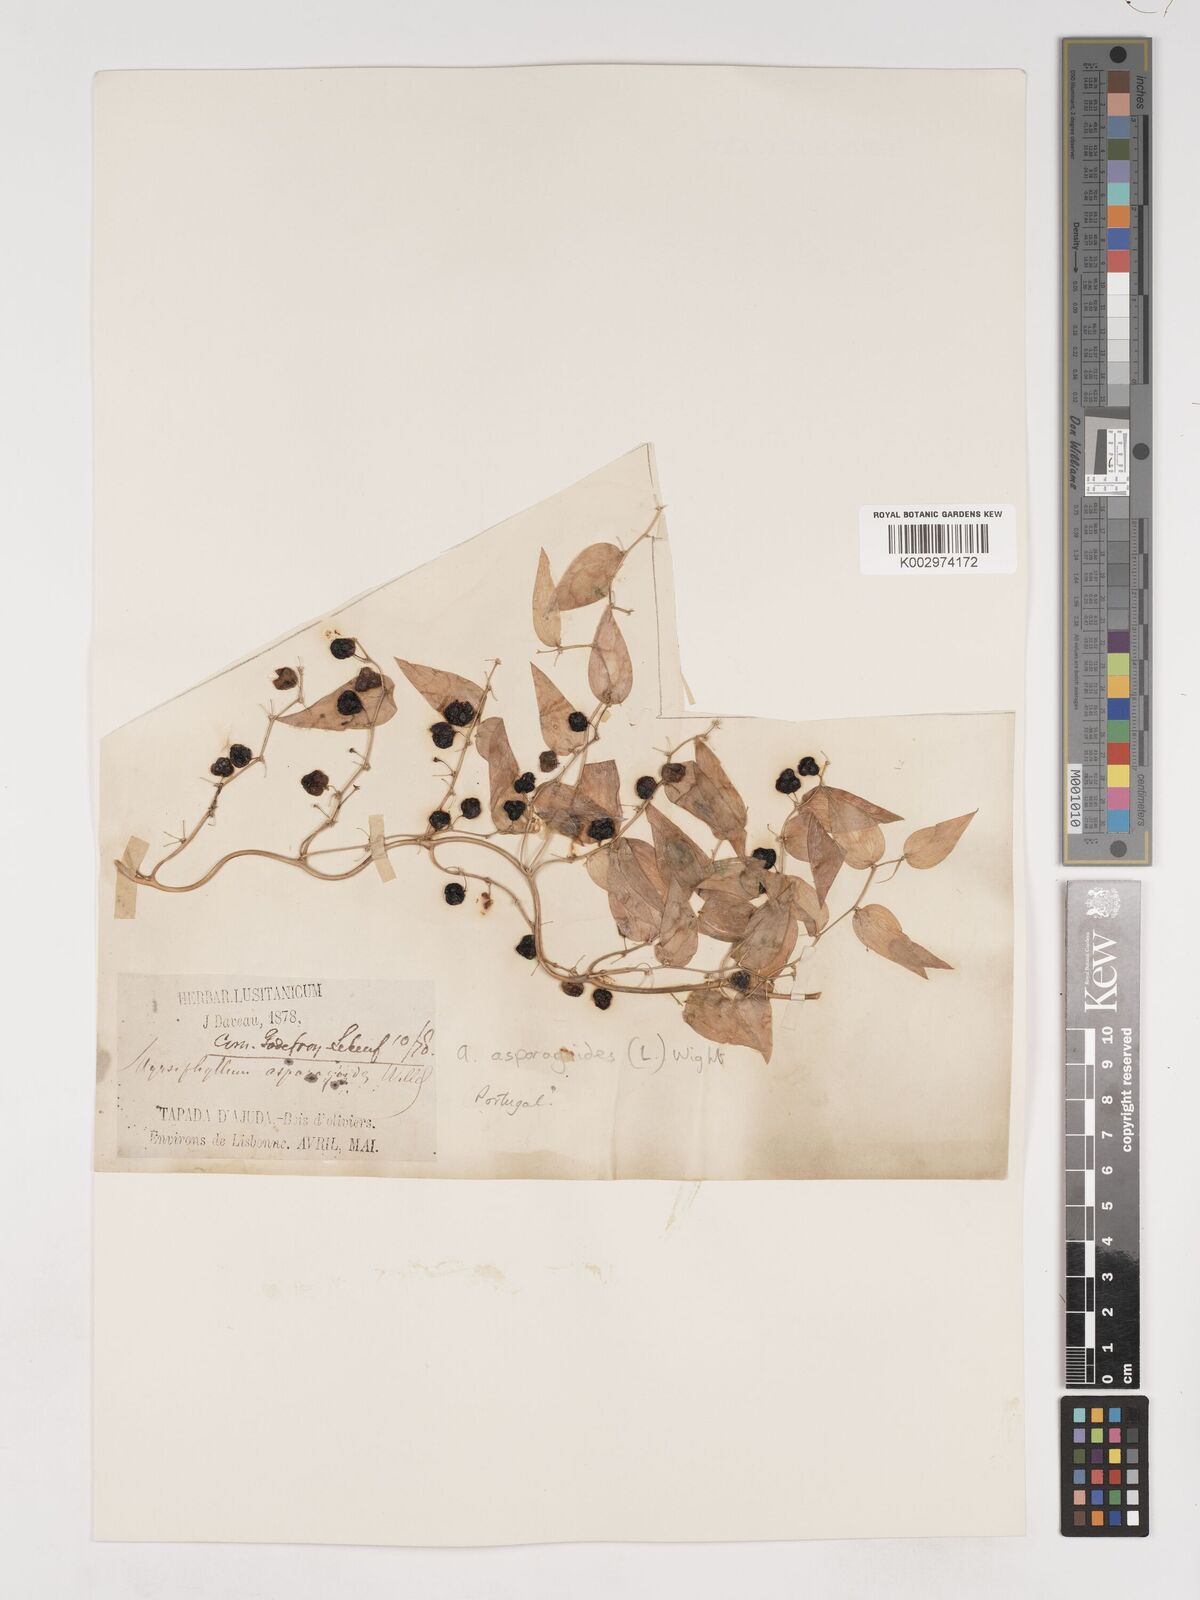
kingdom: Plantae
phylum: Tracheophyta
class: Liliopsida
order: Asparagales
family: Asparagaceae
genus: Asparagus
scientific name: Asparagus asparagoides
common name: African asparagus fern
